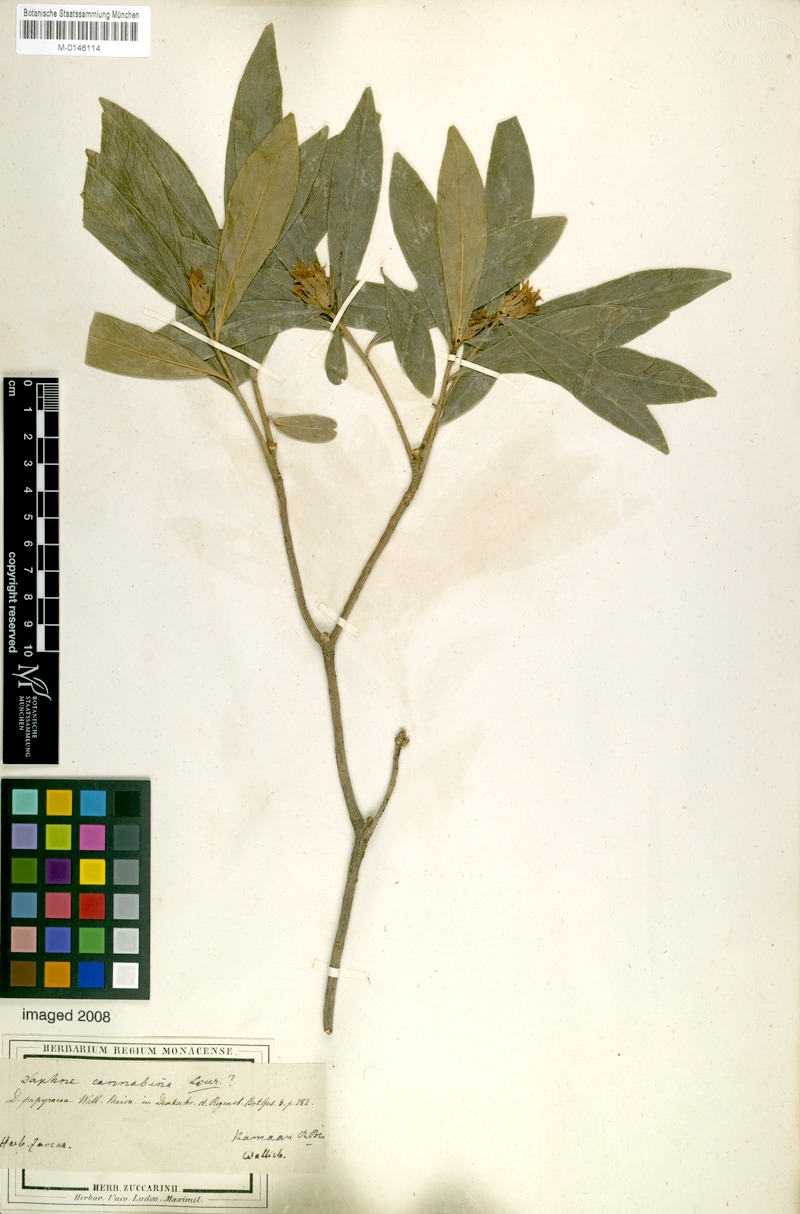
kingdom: Plantae
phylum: Tracheophyta
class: Magnoliopsida
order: Malvales
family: Thymelaeaceae
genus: Daphne
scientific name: Daphne papyracea
